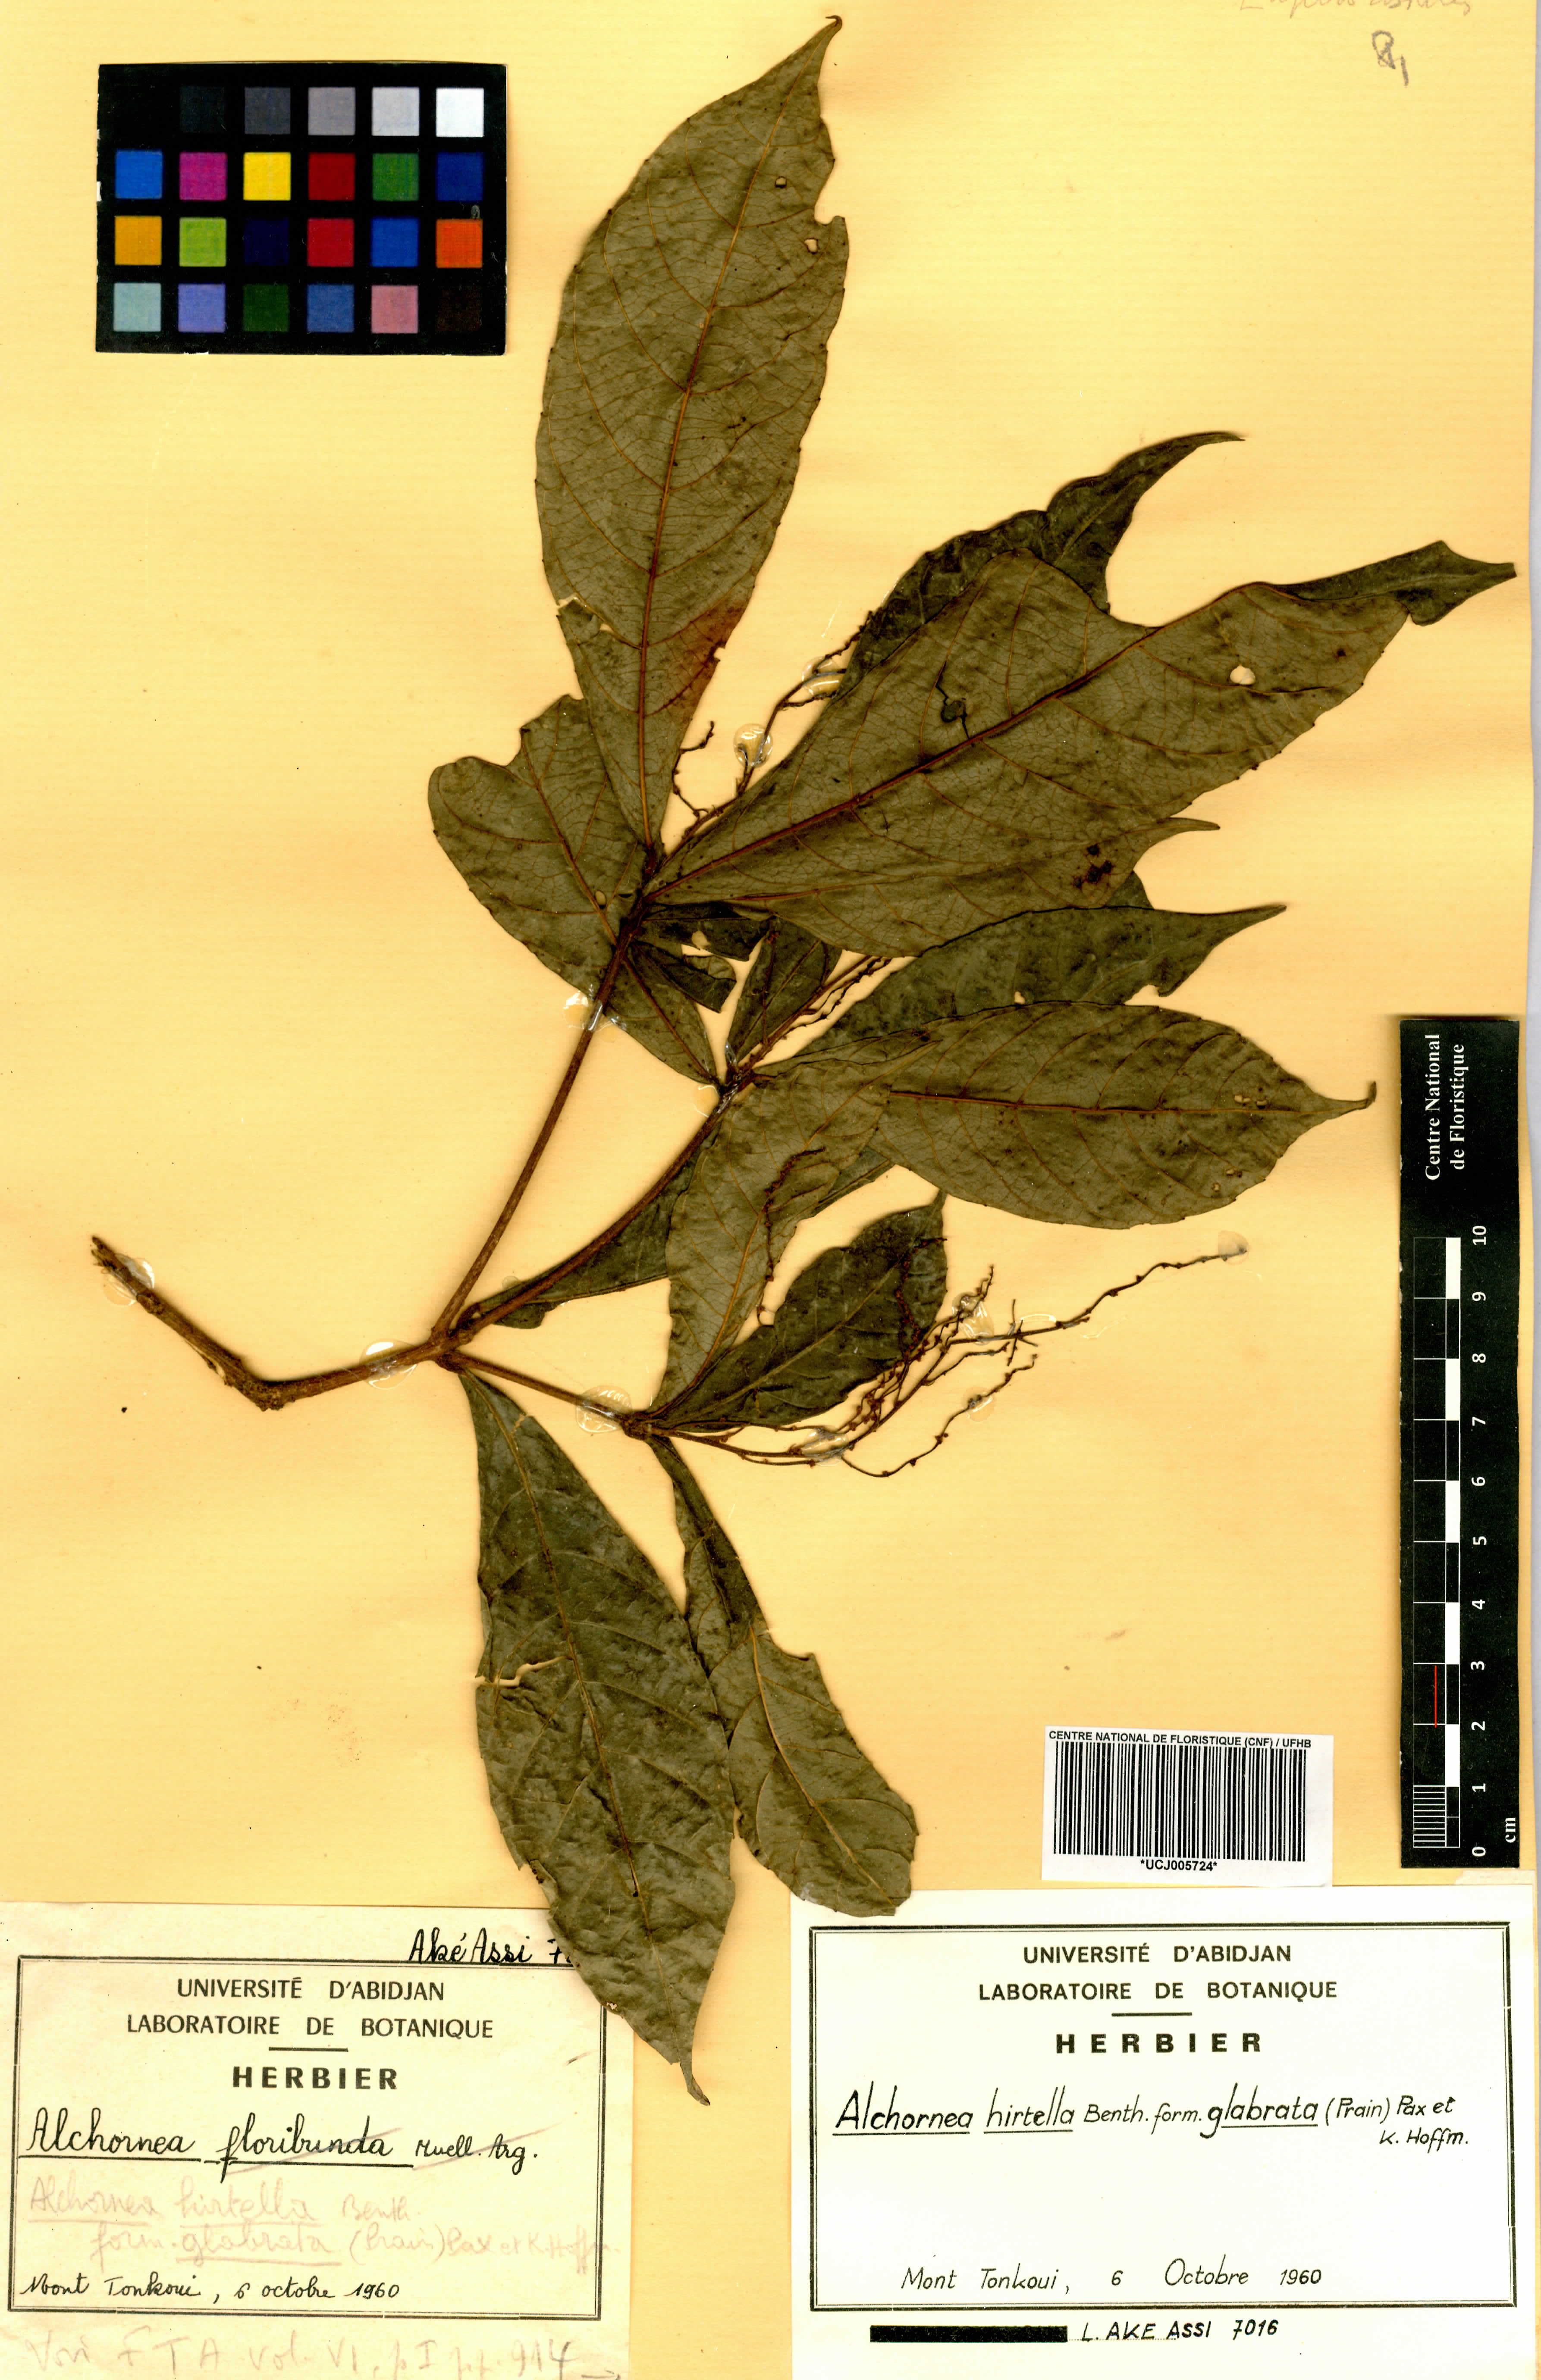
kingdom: Plantae
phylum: Tracheophyta
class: Magnoliopsida
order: Malpighiales
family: Euphorbiaceae
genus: Alchornea
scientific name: Alchornea hirtella
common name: Forest bead-string
